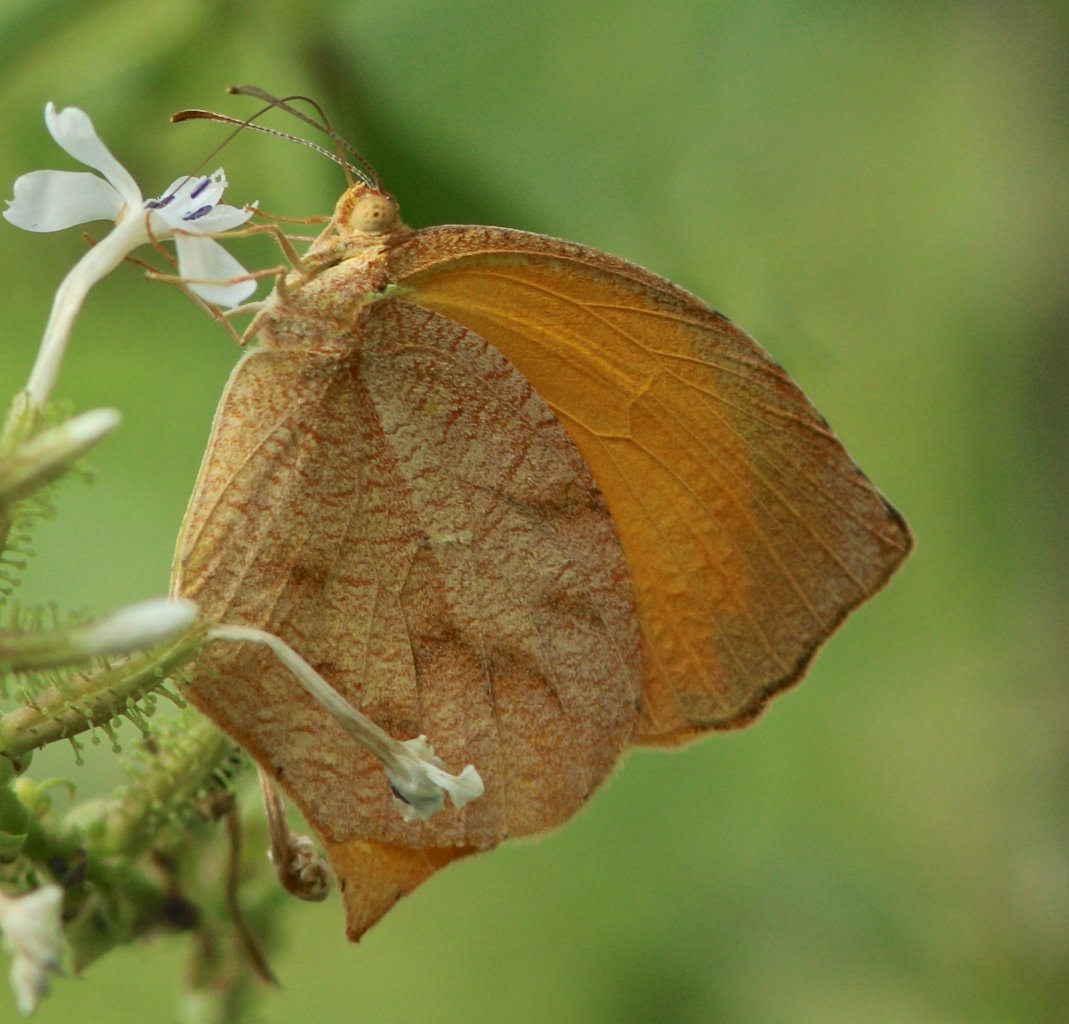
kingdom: Animalia
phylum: Arthropoda
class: Insecta
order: Lepidoptera
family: Pieridae
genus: Pyrisitia
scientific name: Pyrisitia proterpia
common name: Tailed Orange
